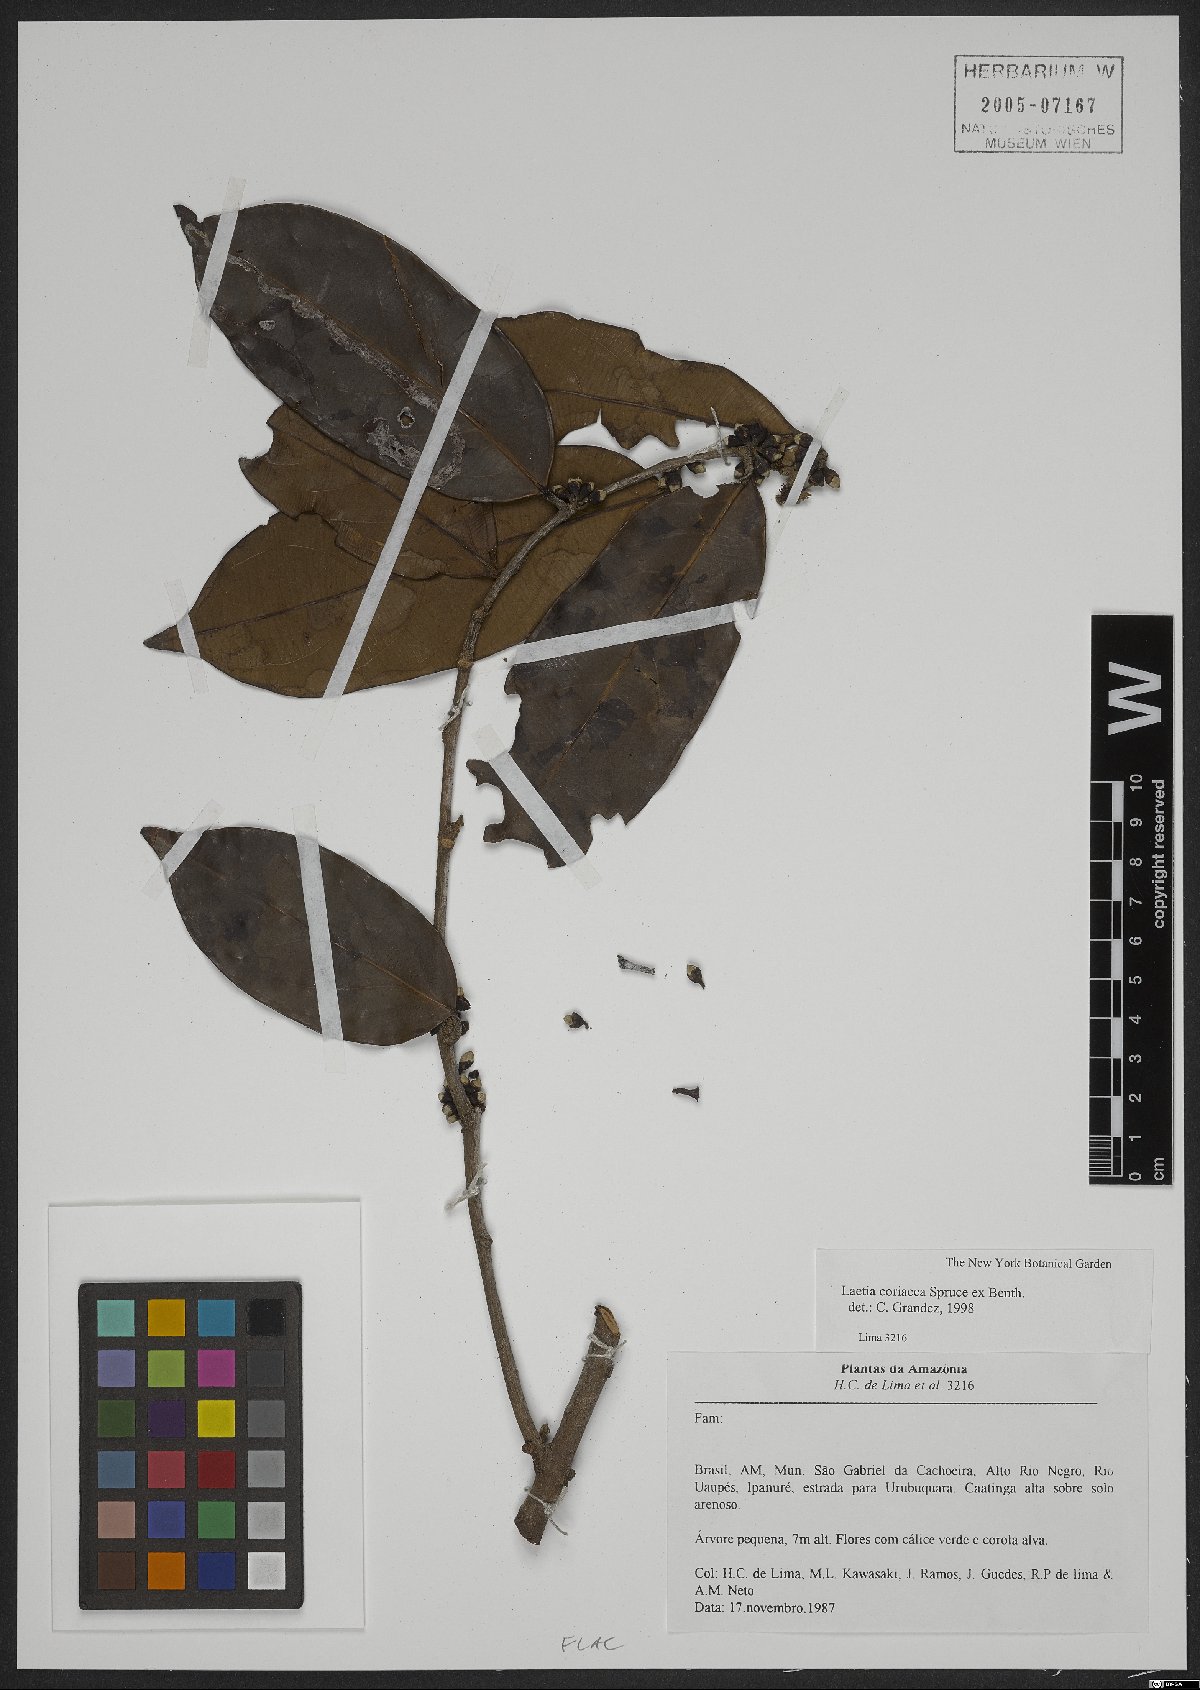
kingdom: Plantae
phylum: Tracheophyta
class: Magnoliopsida
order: Malpighiales
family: Salicaceae
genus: Irenodendron
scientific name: Irenodendron coriaceum
